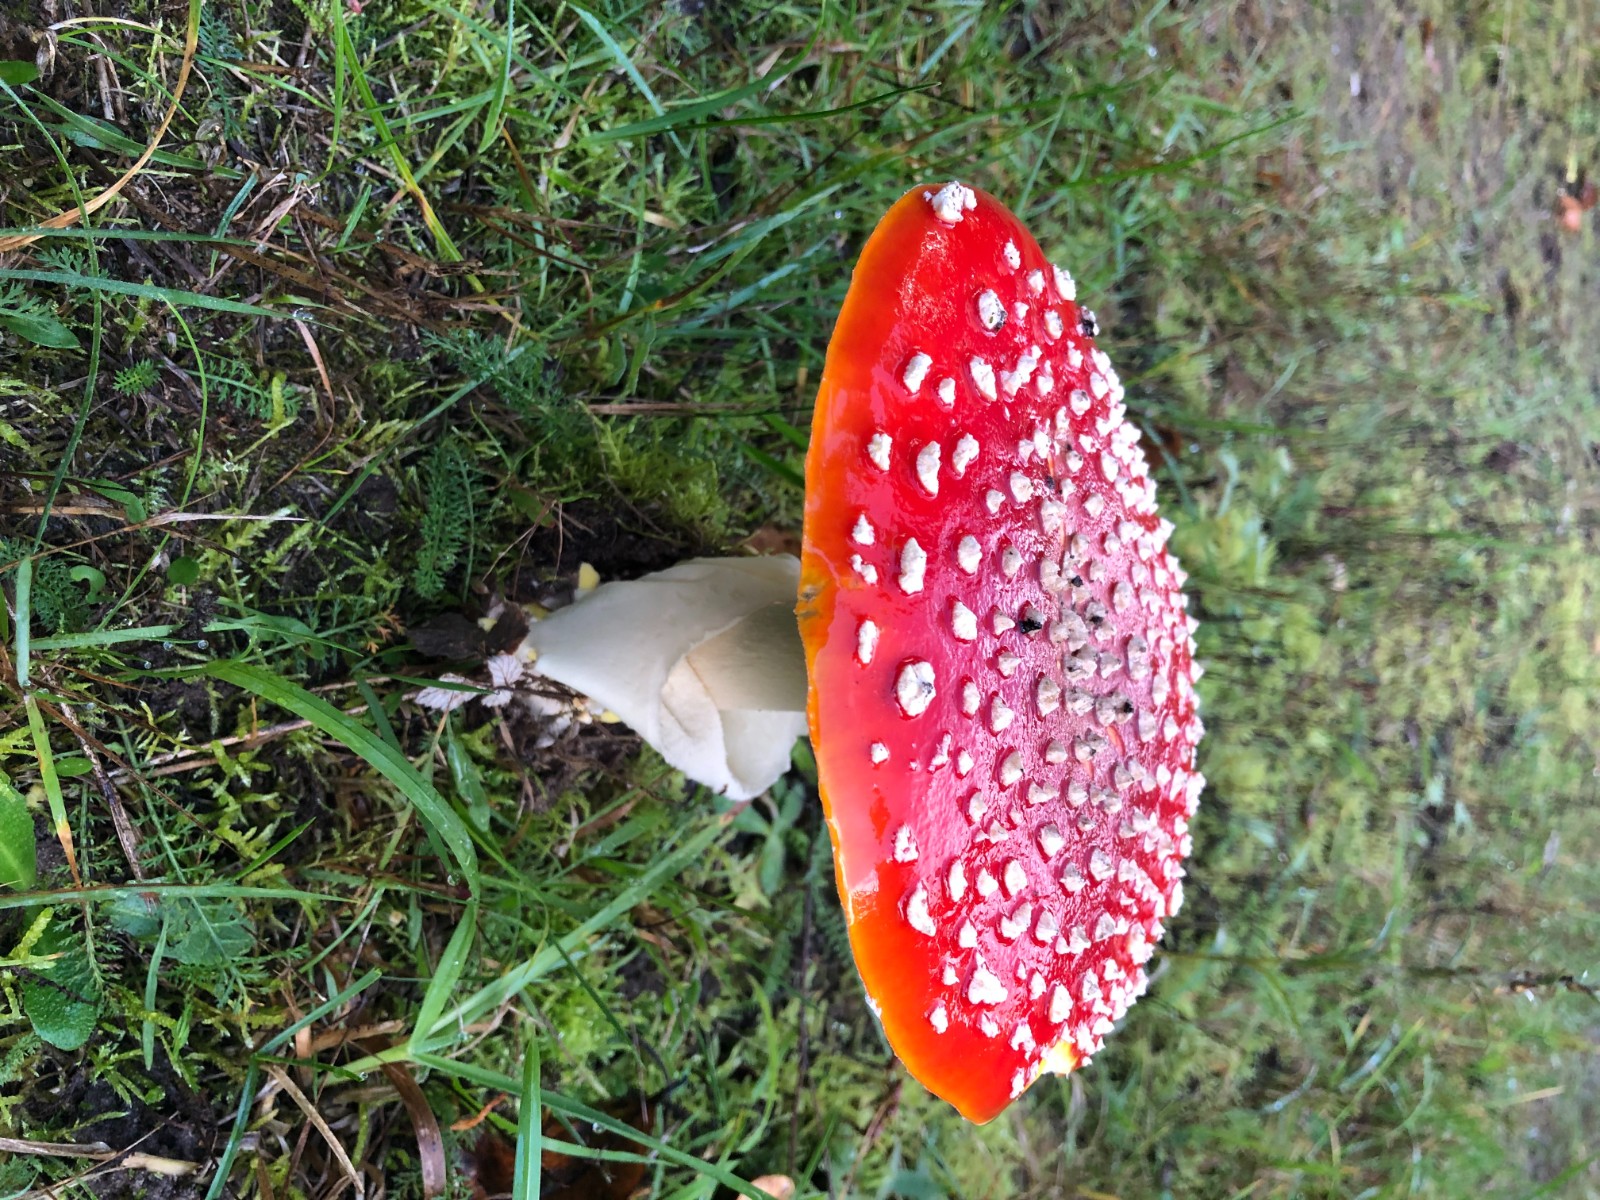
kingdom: Fungi
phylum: Basidiomycota
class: Agaricomycetes
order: Agaricales
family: Amanitaceae
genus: Amanita
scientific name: Amanita muscaria
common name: rød fluesvamp
